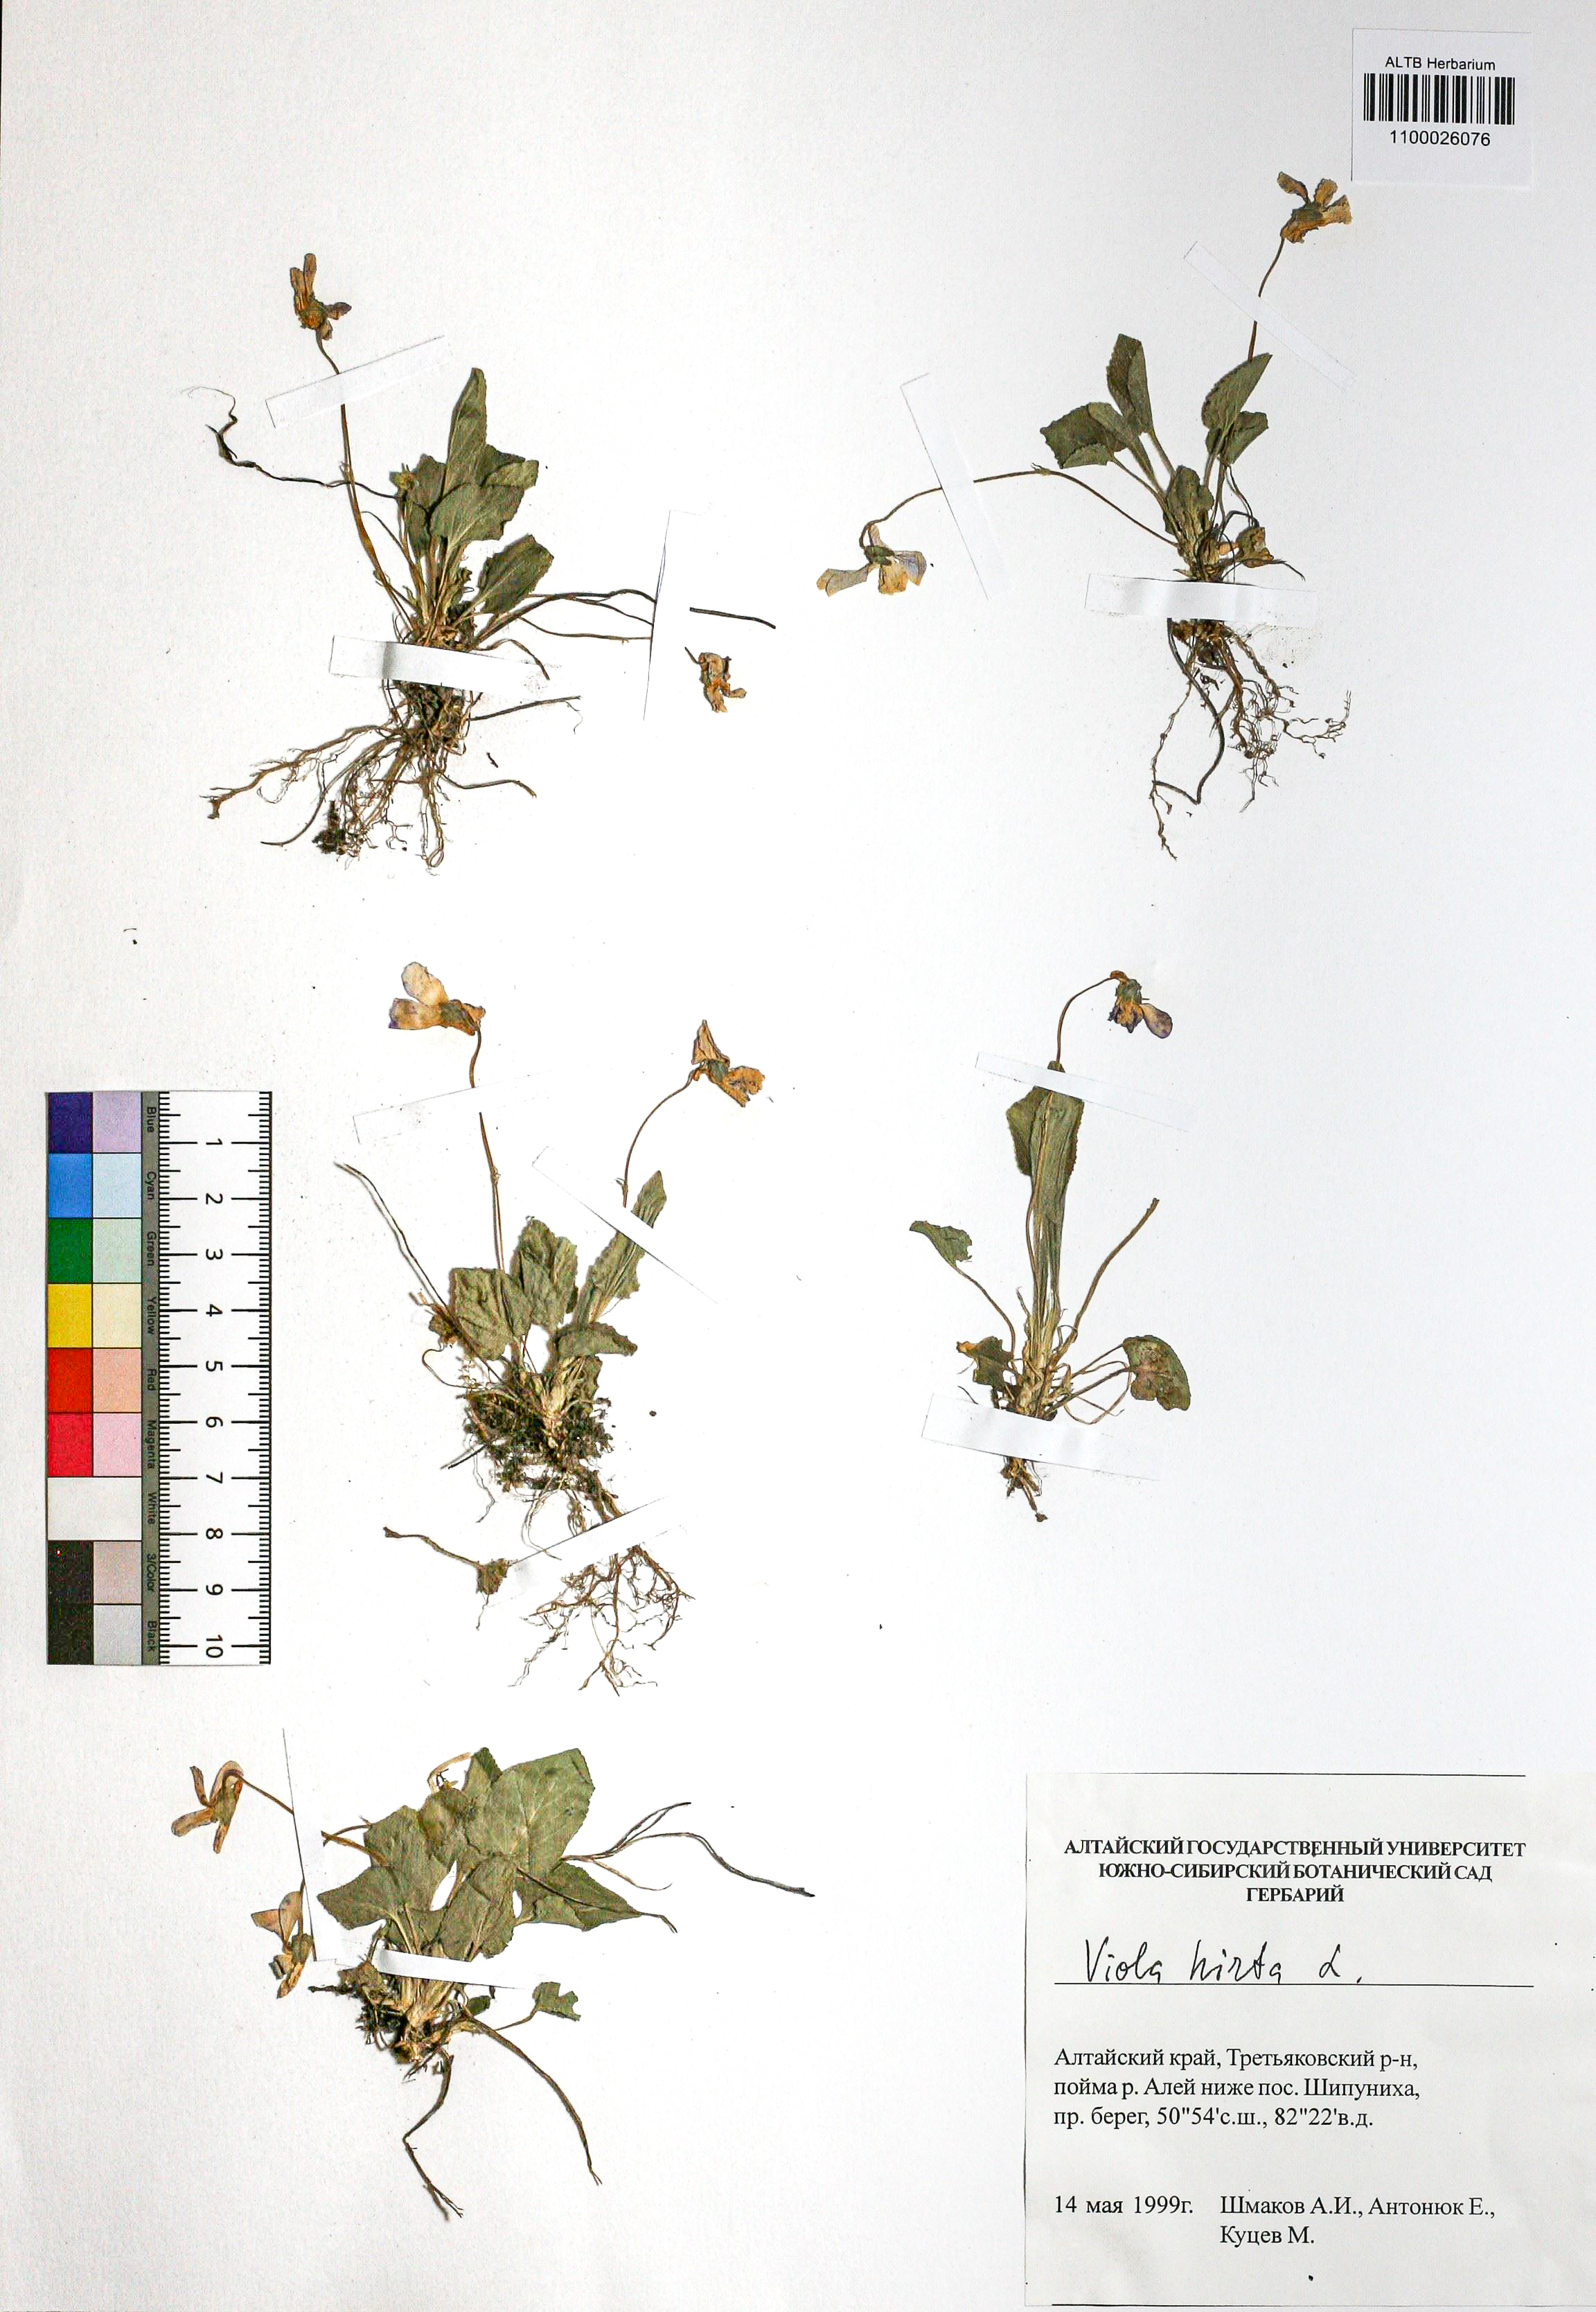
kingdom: Plantae
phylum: Tracheophyta
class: Magnoliopsida
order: Malpighiales
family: Violaceae
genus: Viola
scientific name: Viola hirta
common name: Hairy violet
